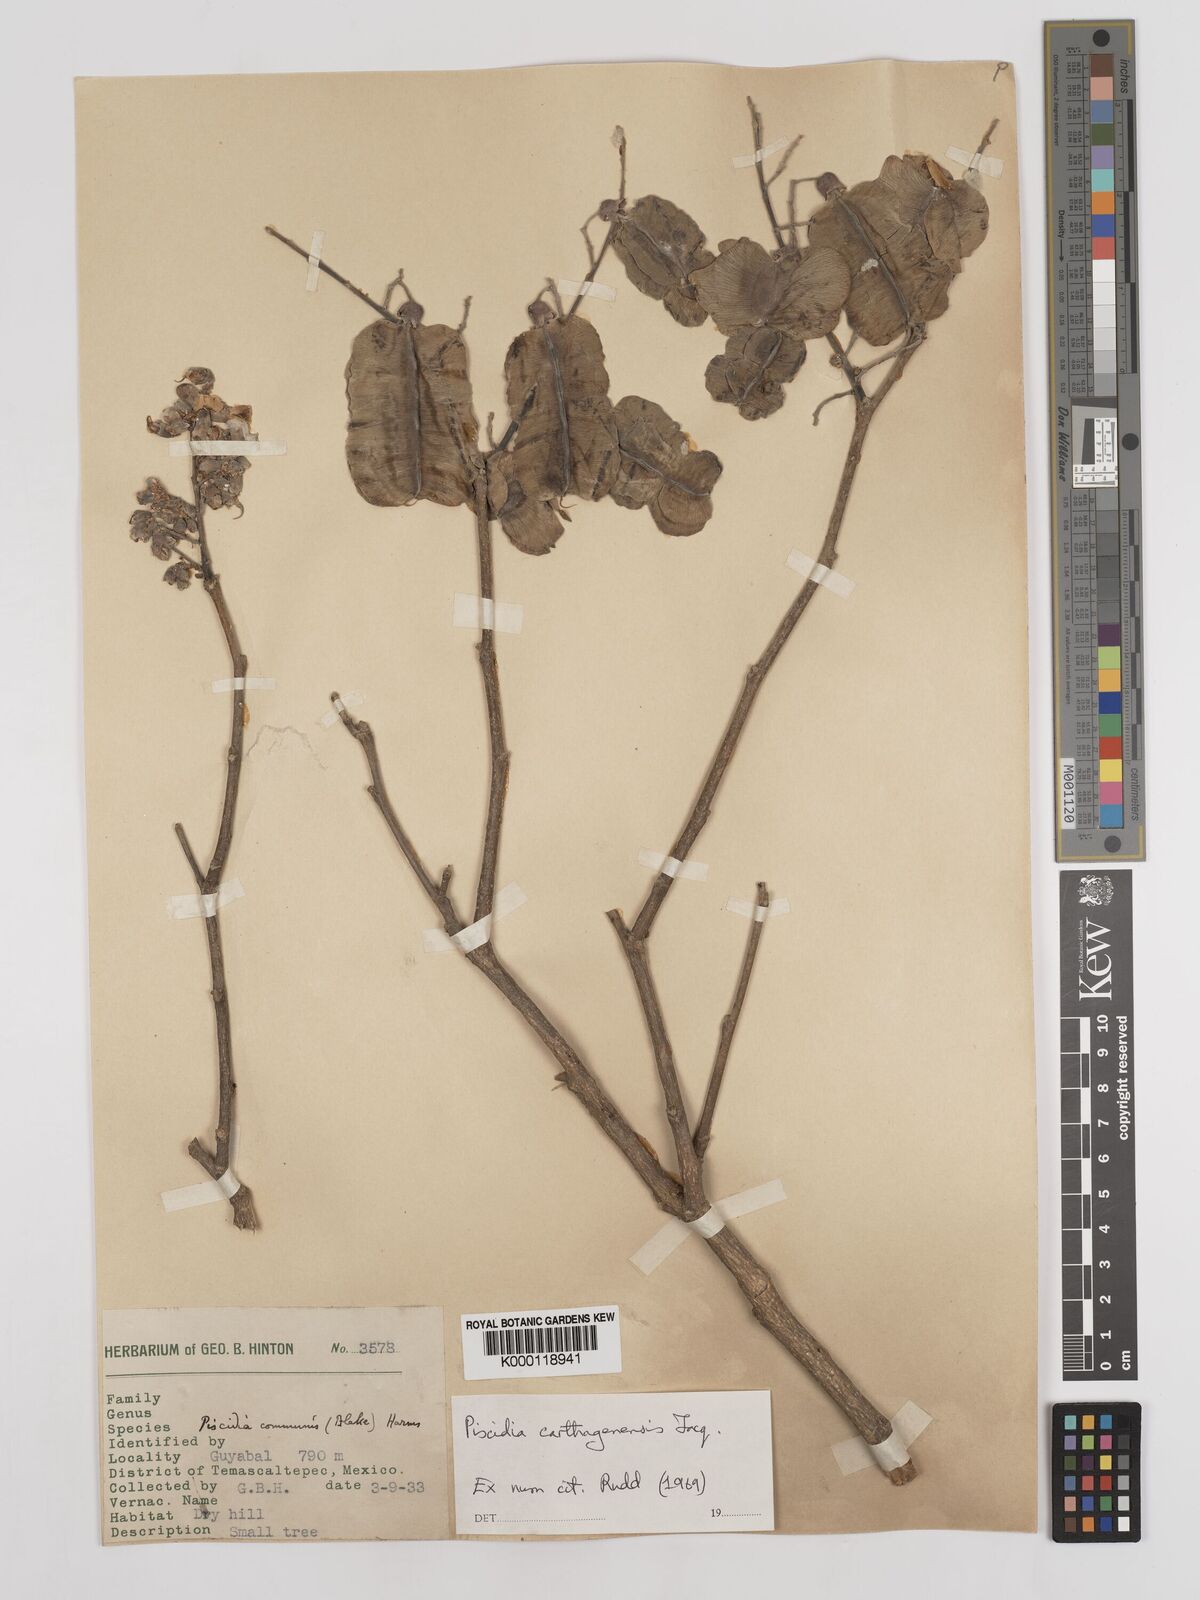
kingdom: Plantae
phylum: Tracheophyta
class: Magnoliopsida
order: Fabales
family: Fabaceae
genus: Piscidia
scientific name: Piscidia carthagenensis
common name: Stinkwood
